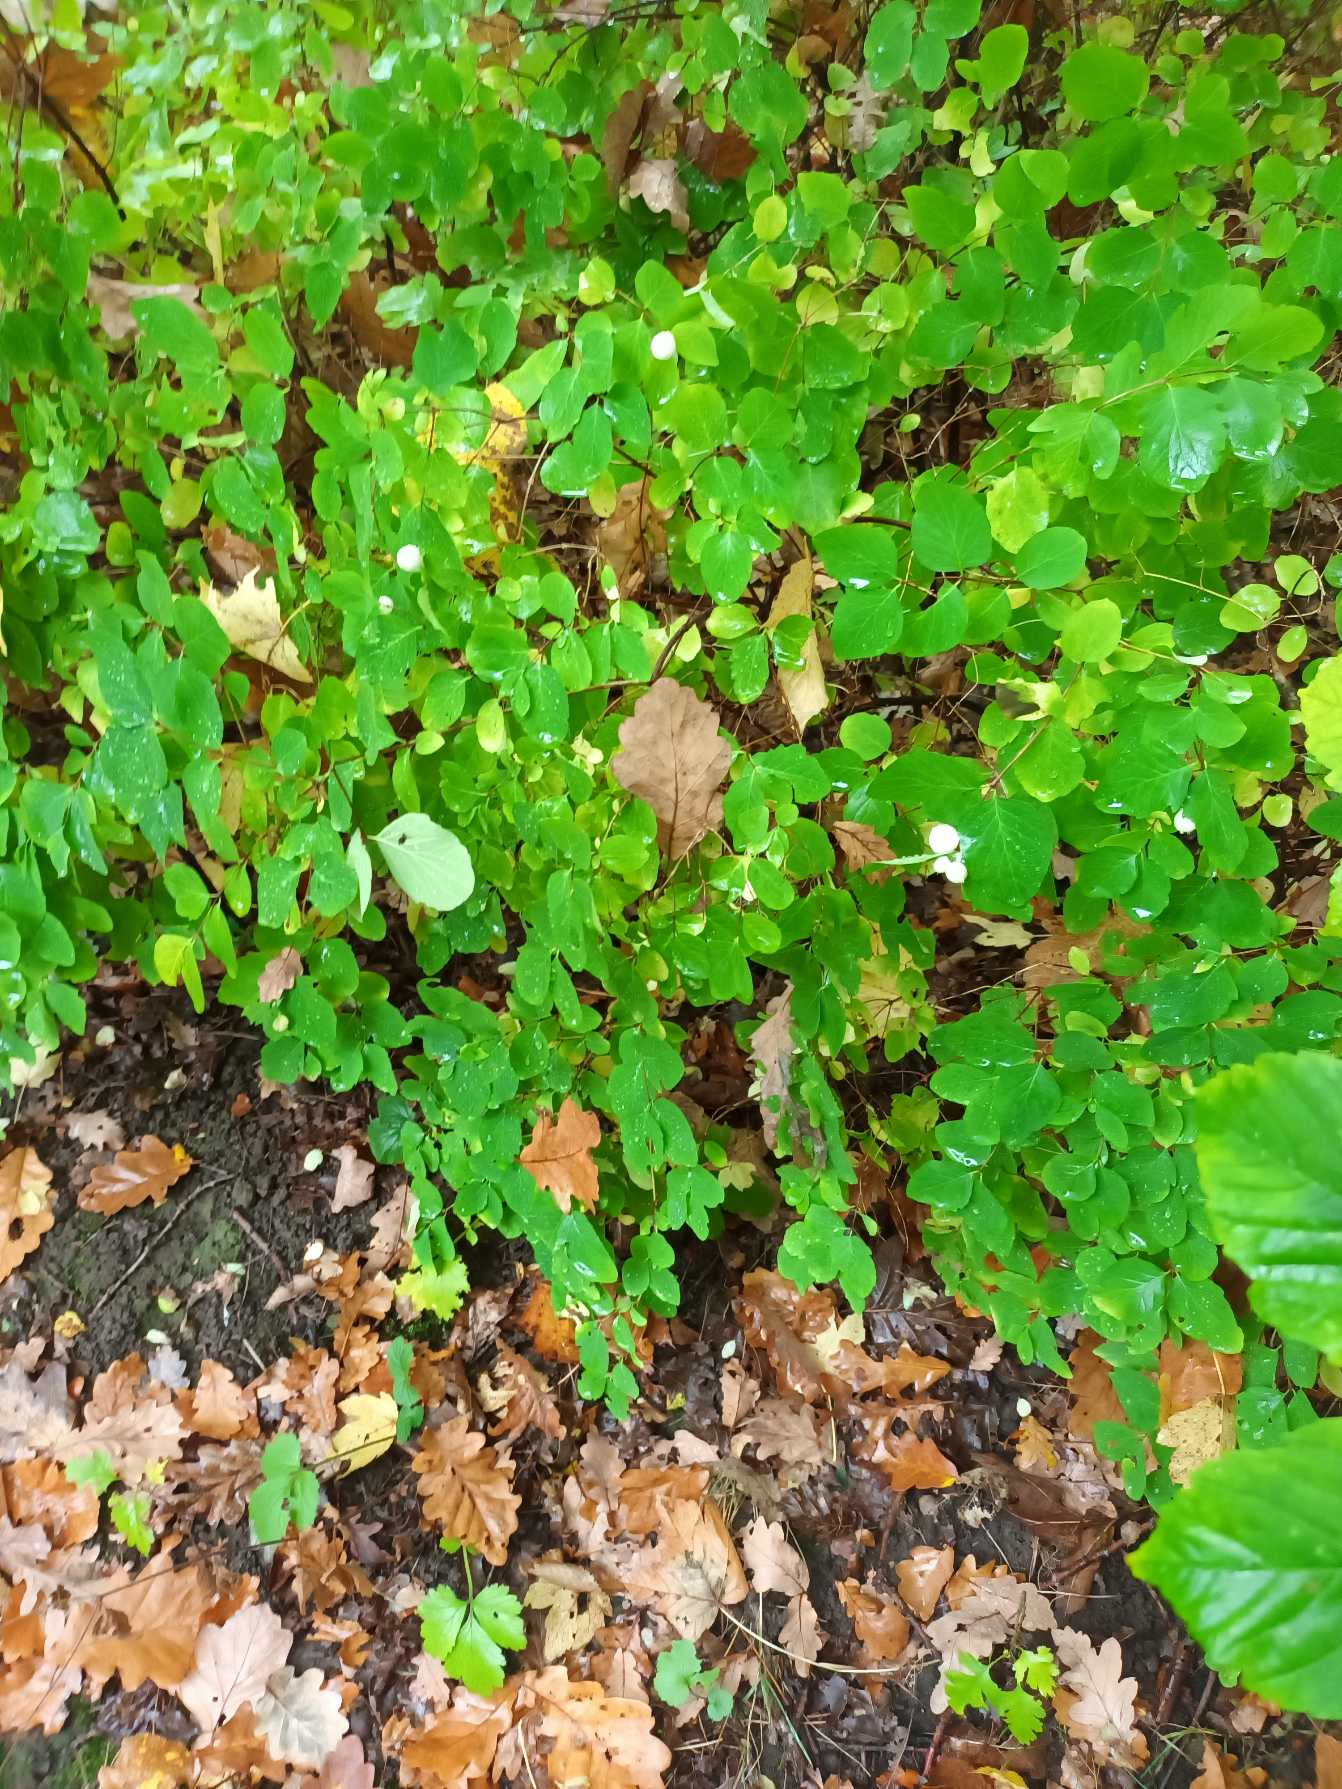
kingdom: Plantae
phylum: Tracheophyta
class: Magnoliopsida
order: Dipsacales
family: Caprifoliaceae
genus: Symphoricarpos
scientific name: Symphoricarpos albus
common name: Almindelig snebær
